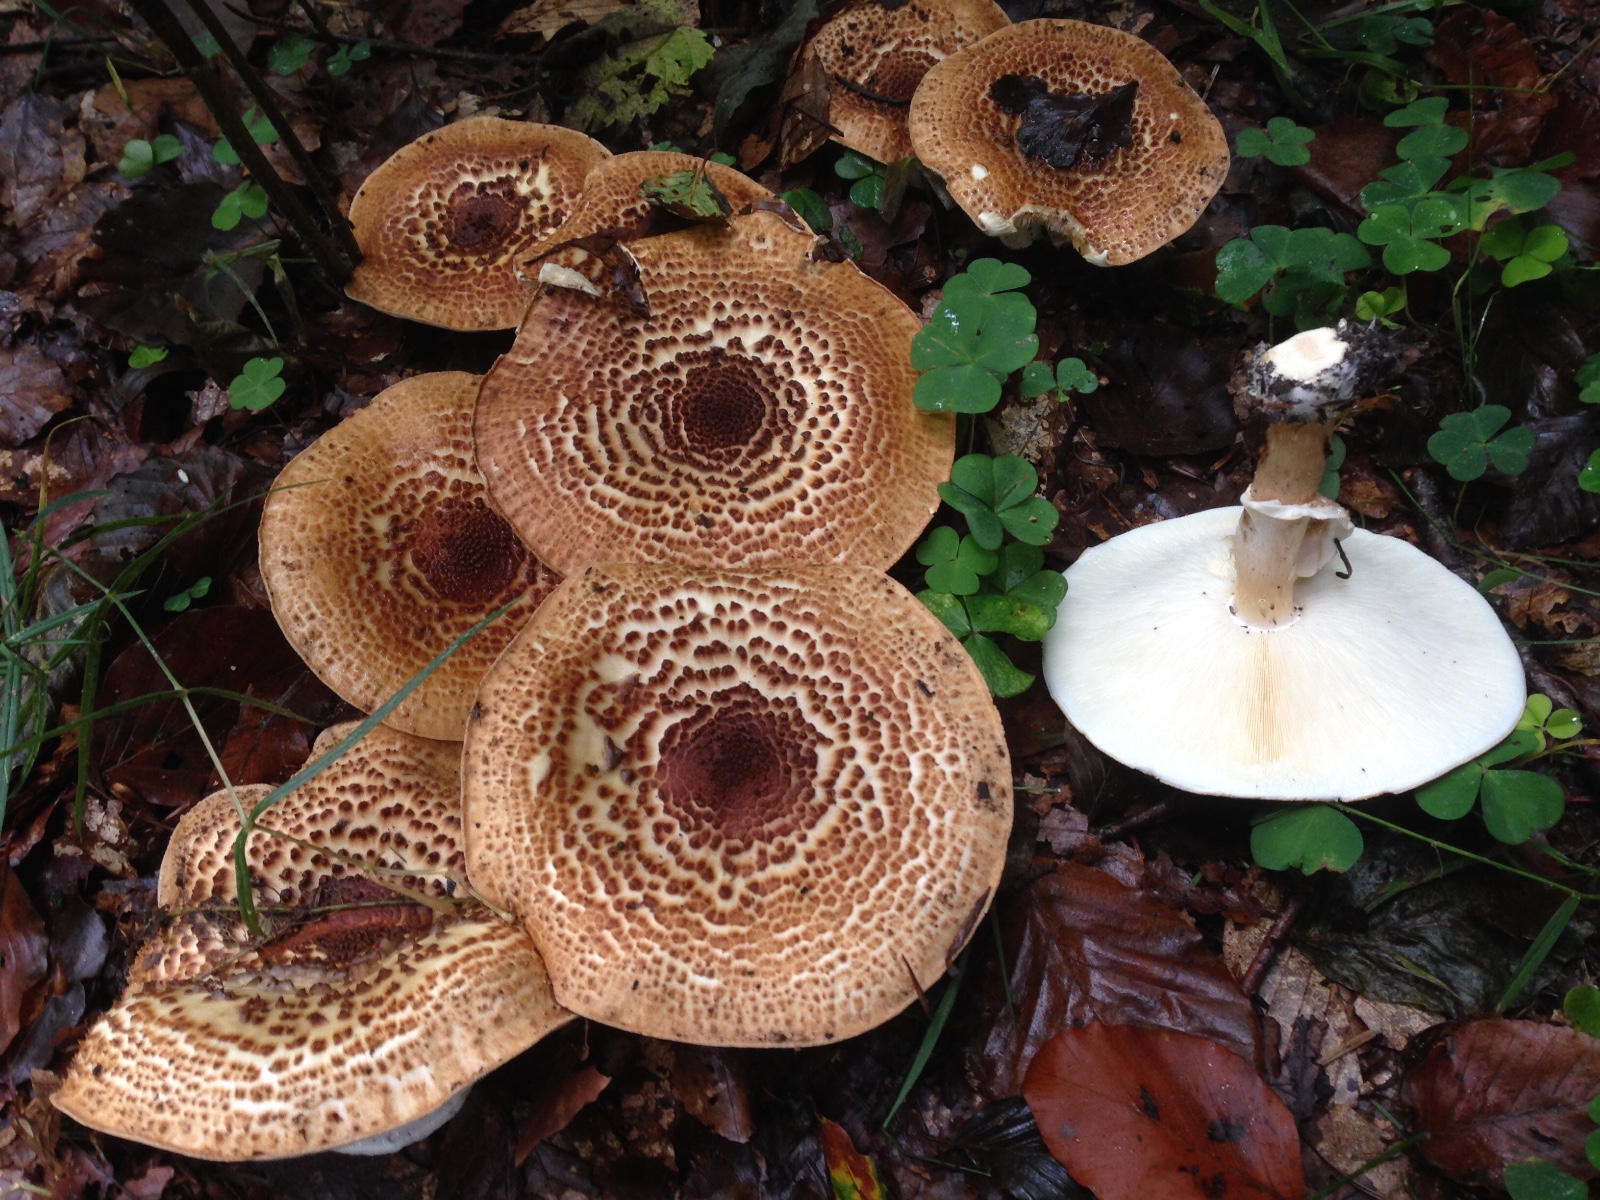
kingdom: Fungi
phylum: Basidiomycota
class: Agaricomycetes
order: Agaricales
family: Agaricaceae
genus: Echinoderma
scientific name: Echinoderma asperum
